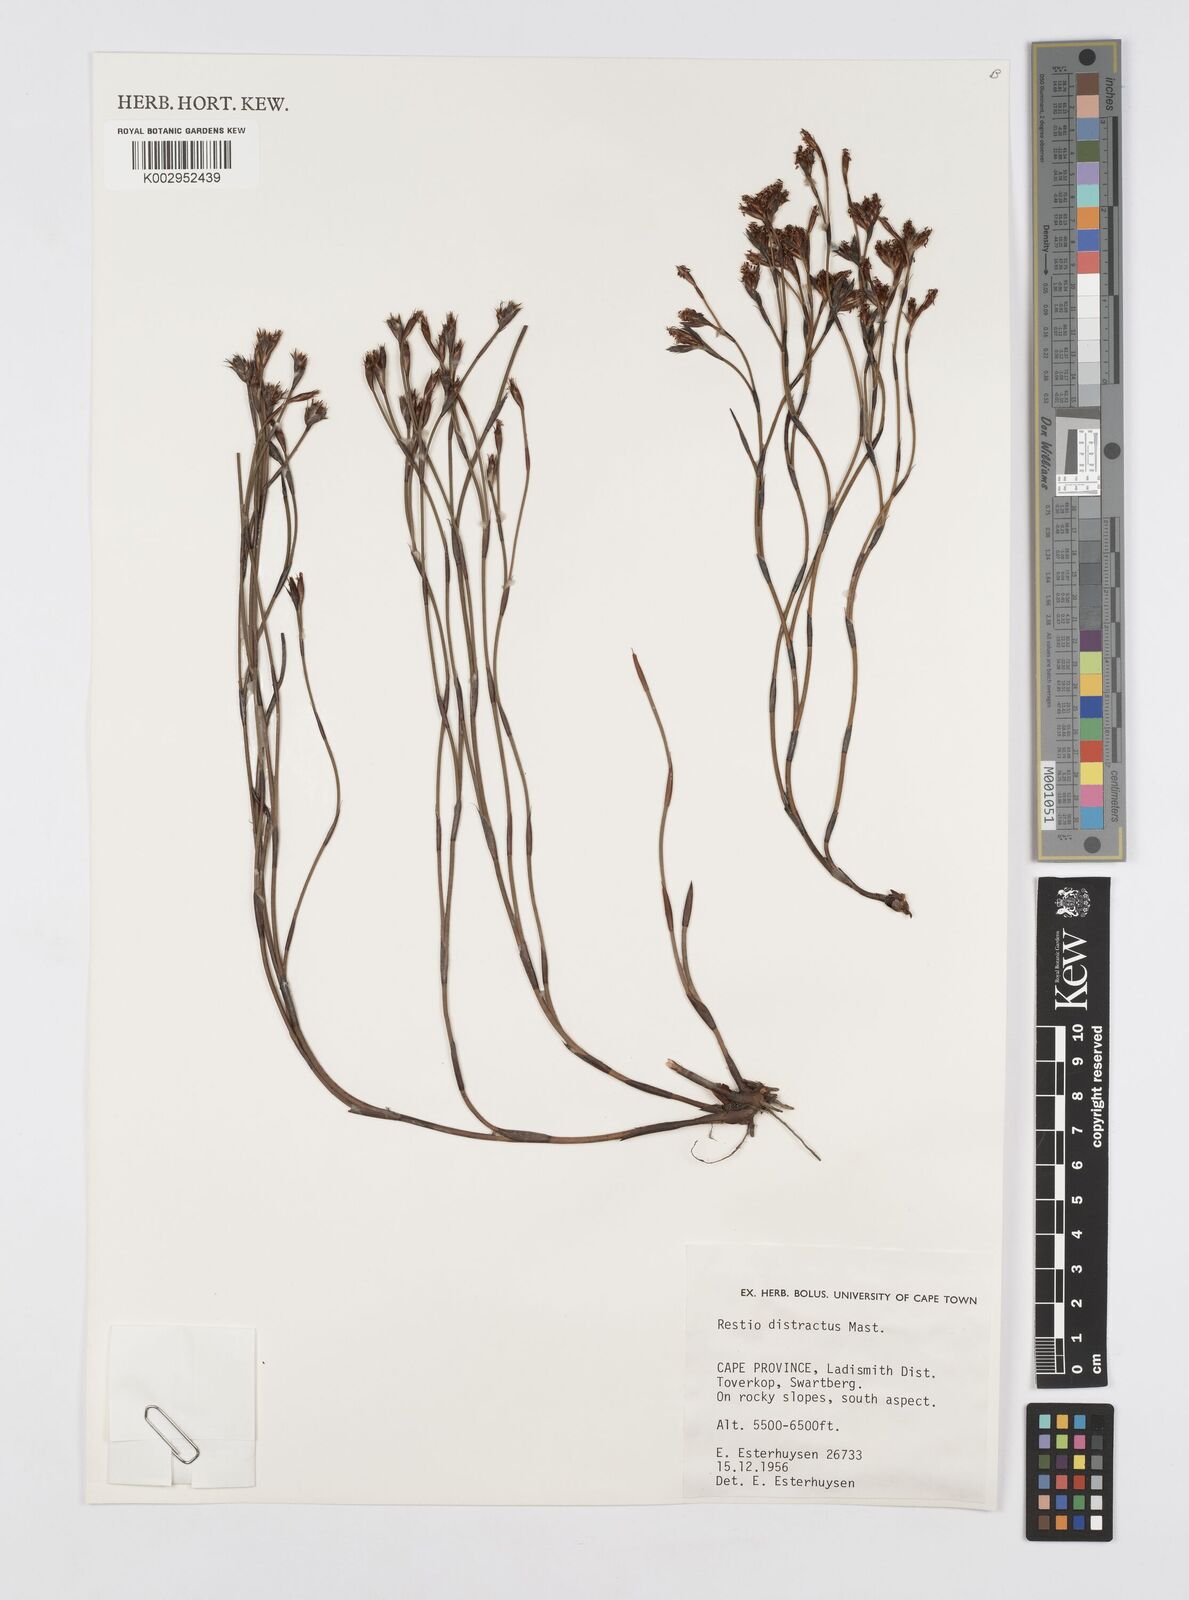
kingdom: Plantae
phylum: Tracheophyta
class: Liliopsida
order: Poales
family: Restionaceae
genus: Restio
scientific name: Restio distractus
